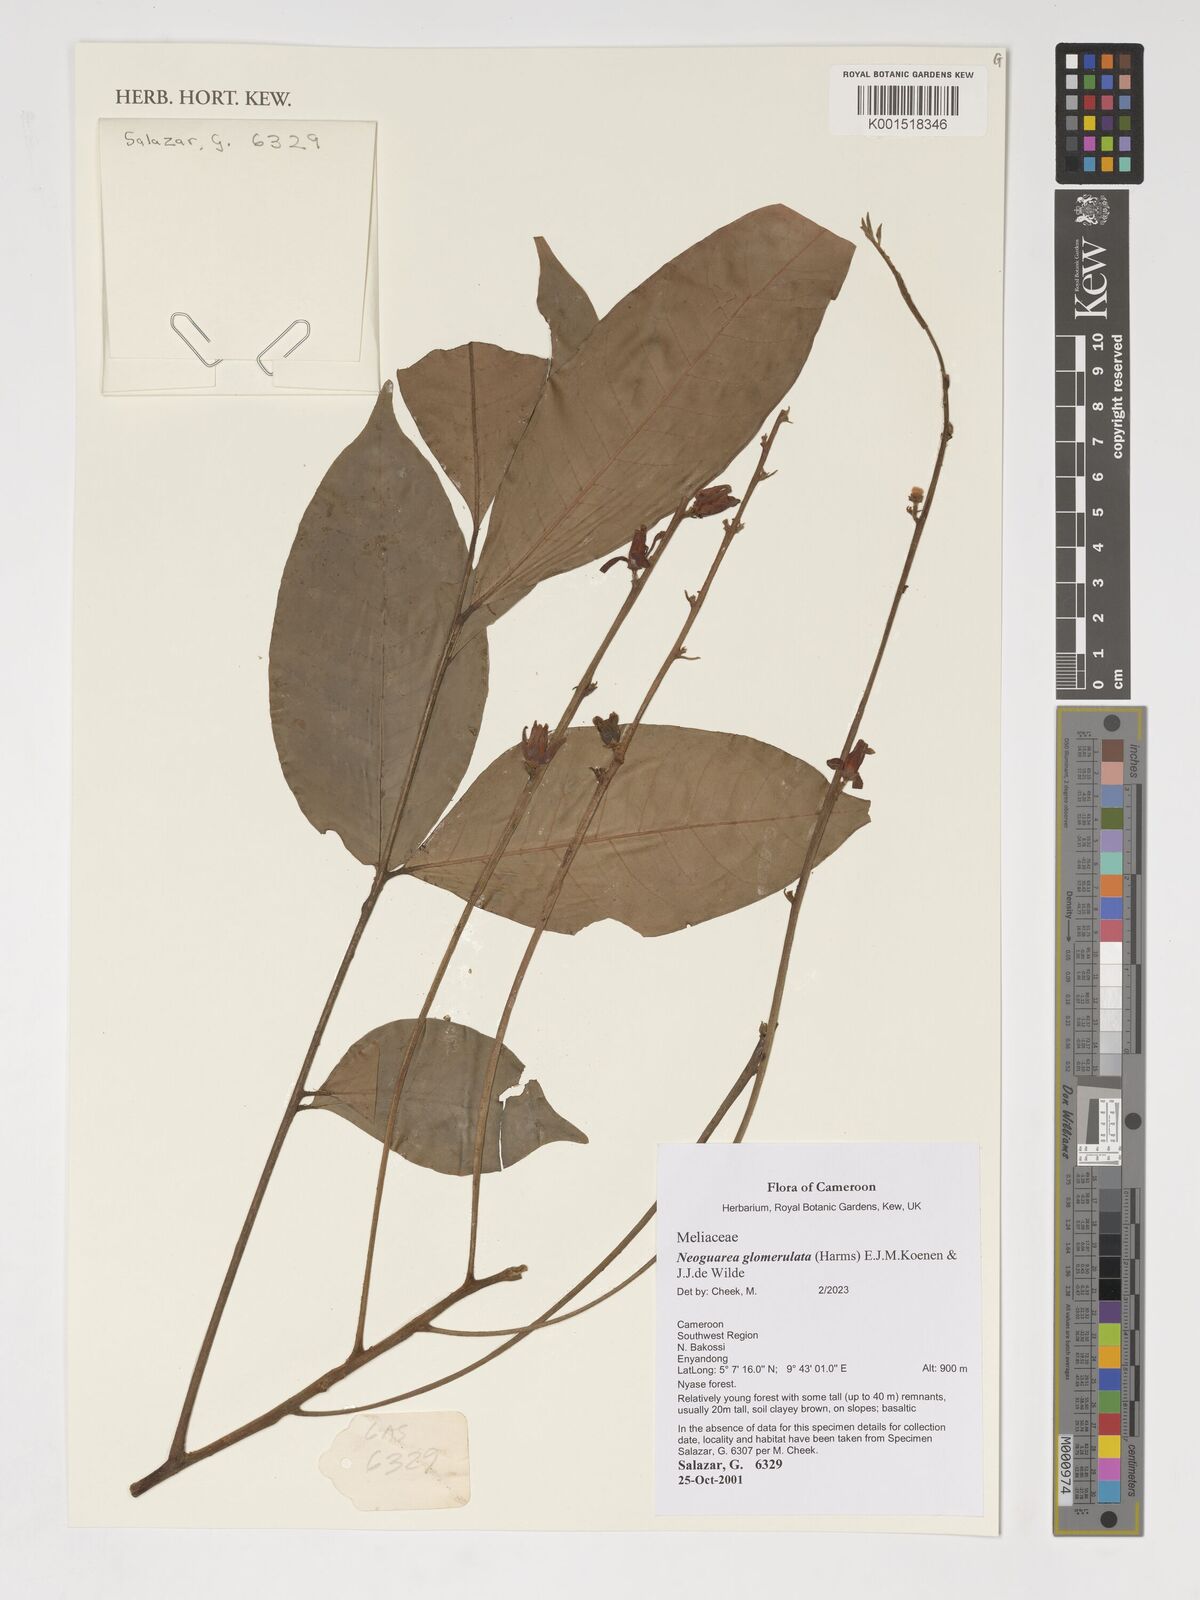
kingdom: Plantae
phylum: Tracheophyta
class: Magnoliopsida
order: Sapindales
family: Meliaceae
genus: Neoguarea
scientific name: Neoguarea glomerulata
